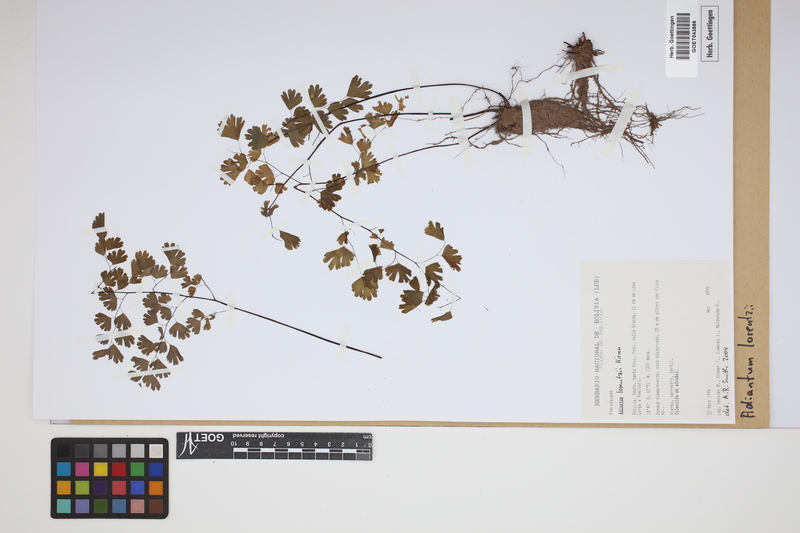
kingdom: Plantae
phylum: Tracheophyta
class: Polypodiopsida
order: Polypodiales
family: Pteridaceae
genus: Adiantum
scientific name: Adiantum lorentzii
